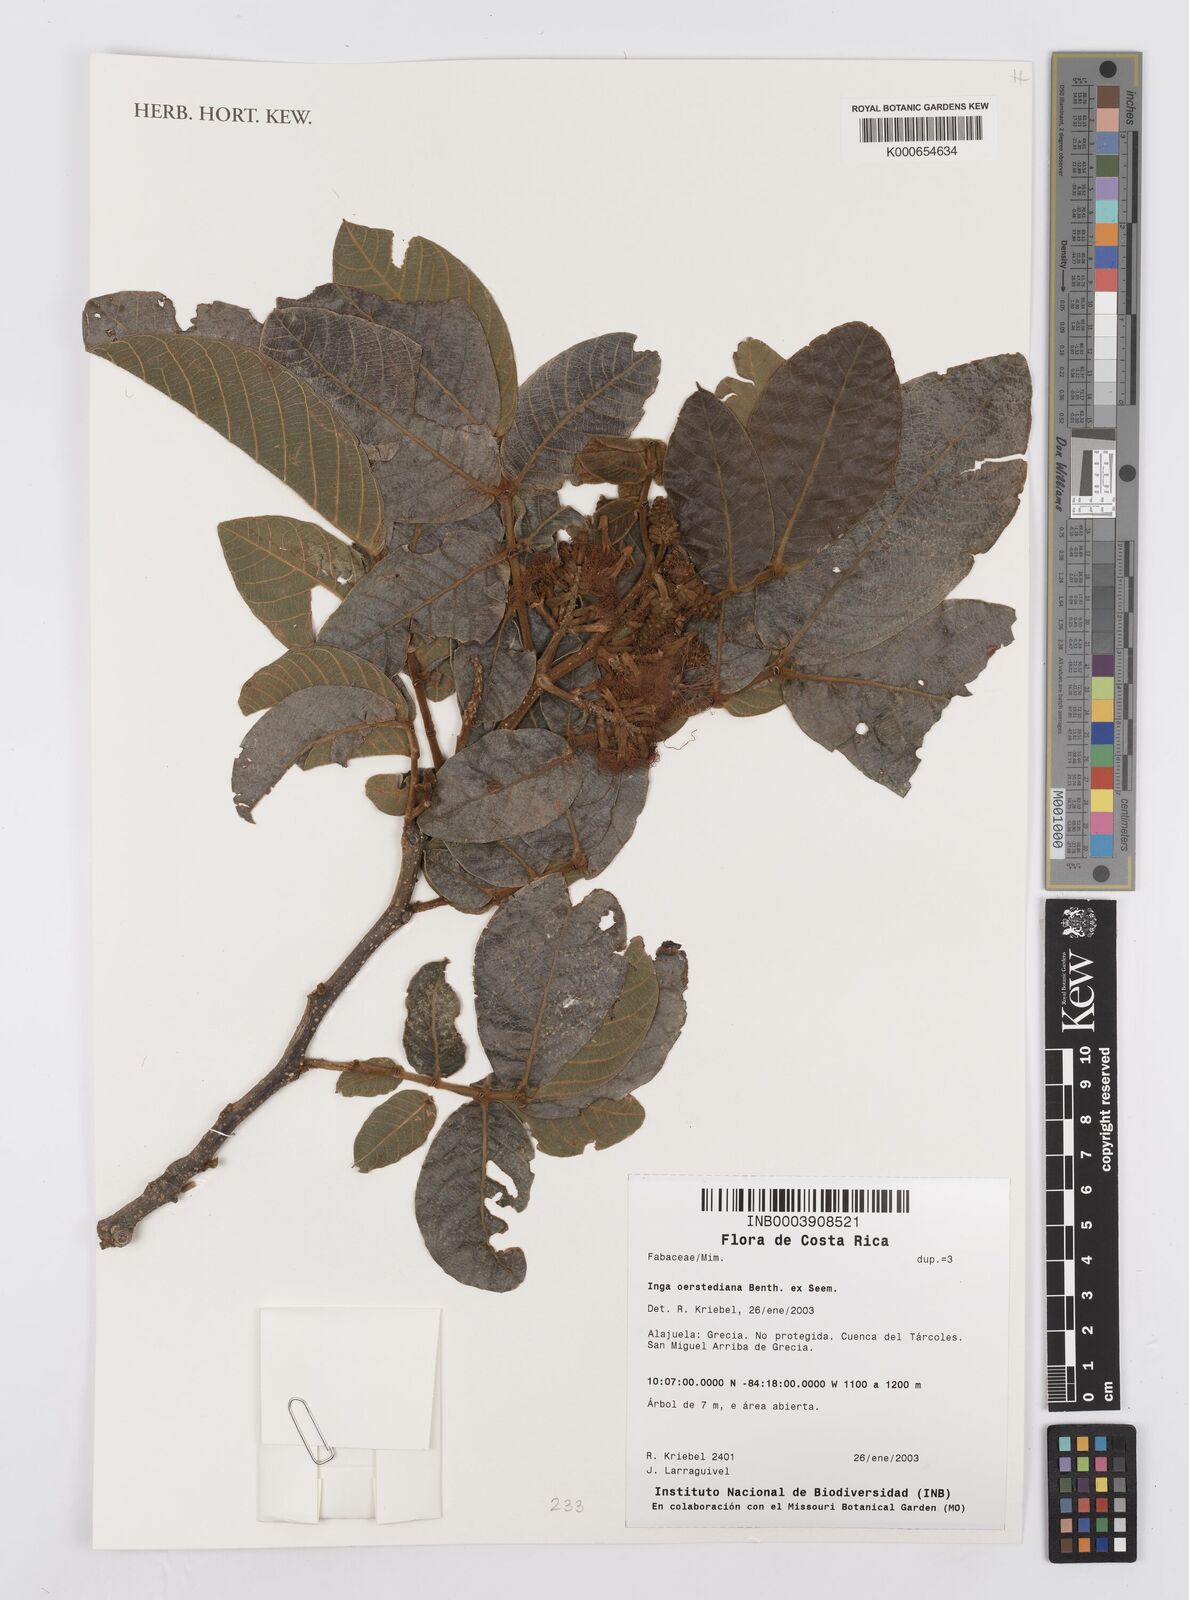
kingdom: Plantae
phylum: Tracheophyta
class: Magnoliopsida
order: Fabales
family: Fabaceae
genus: Inga
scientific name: Inga oerstediana
